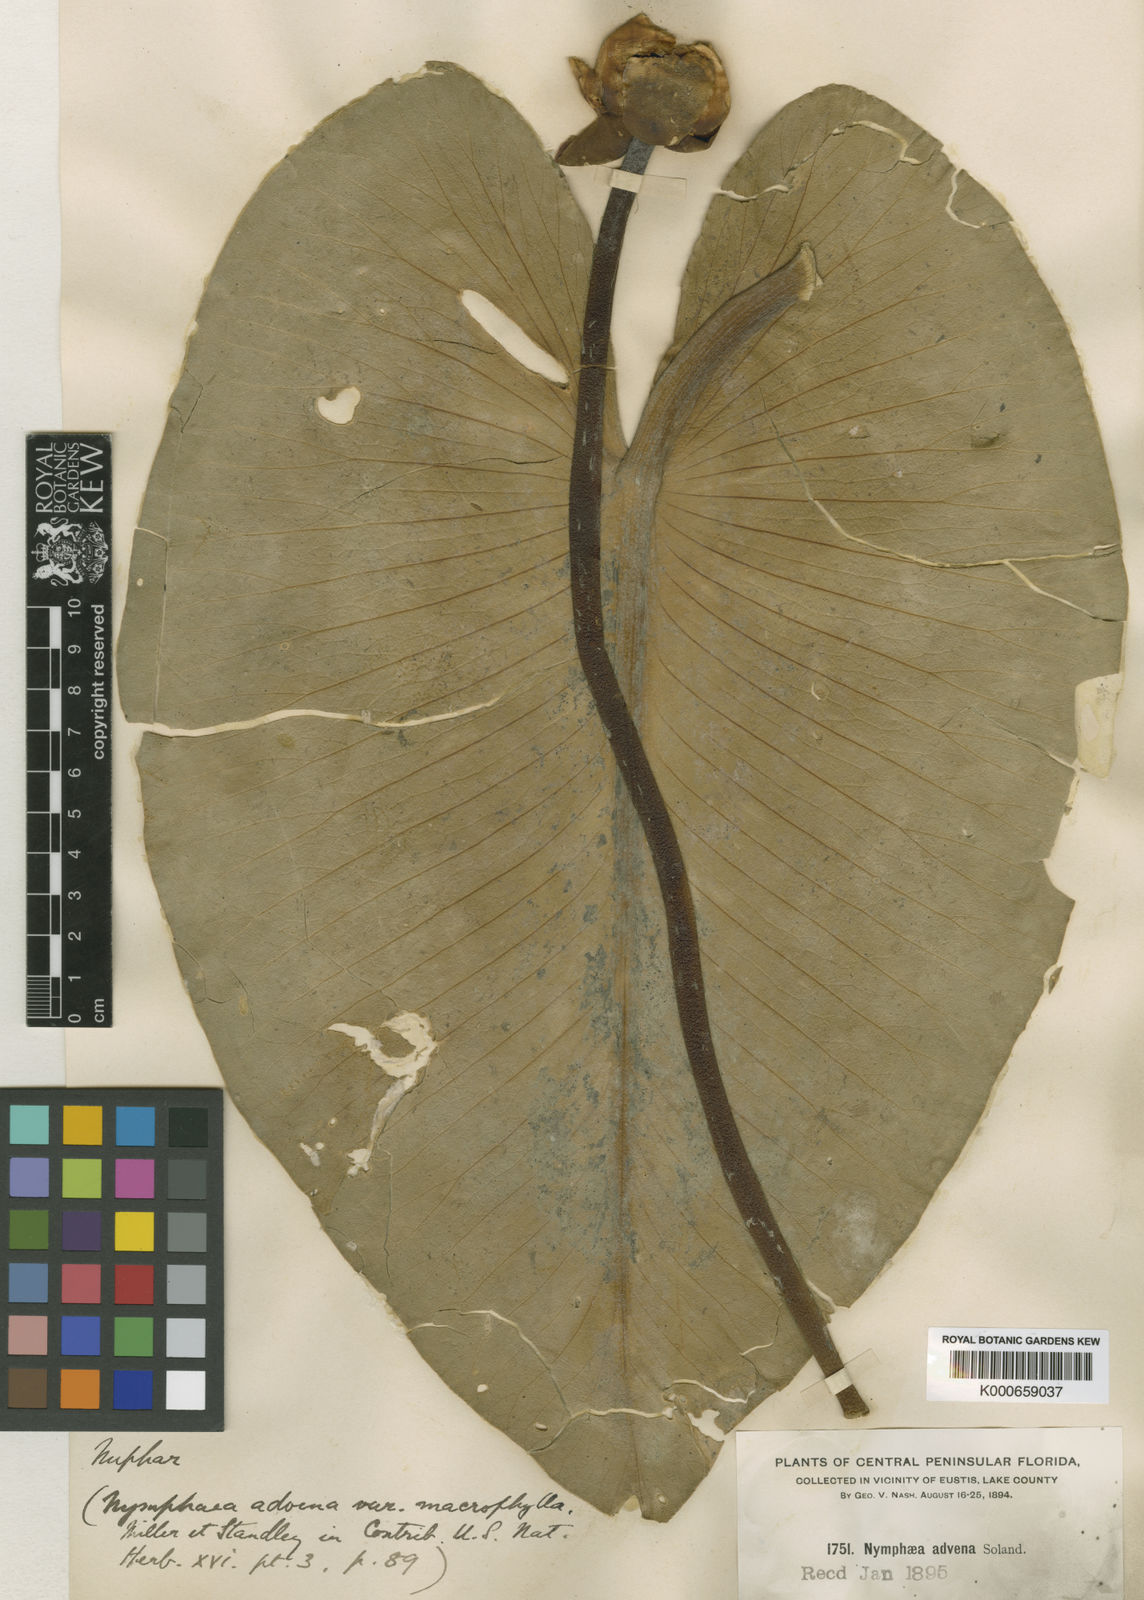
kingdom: Plantae
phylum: Tracheophyta
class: Magnoliopsida
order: Nymphaeales
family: Nymphaeaceae
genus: Nuphar
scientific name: Nuphar
